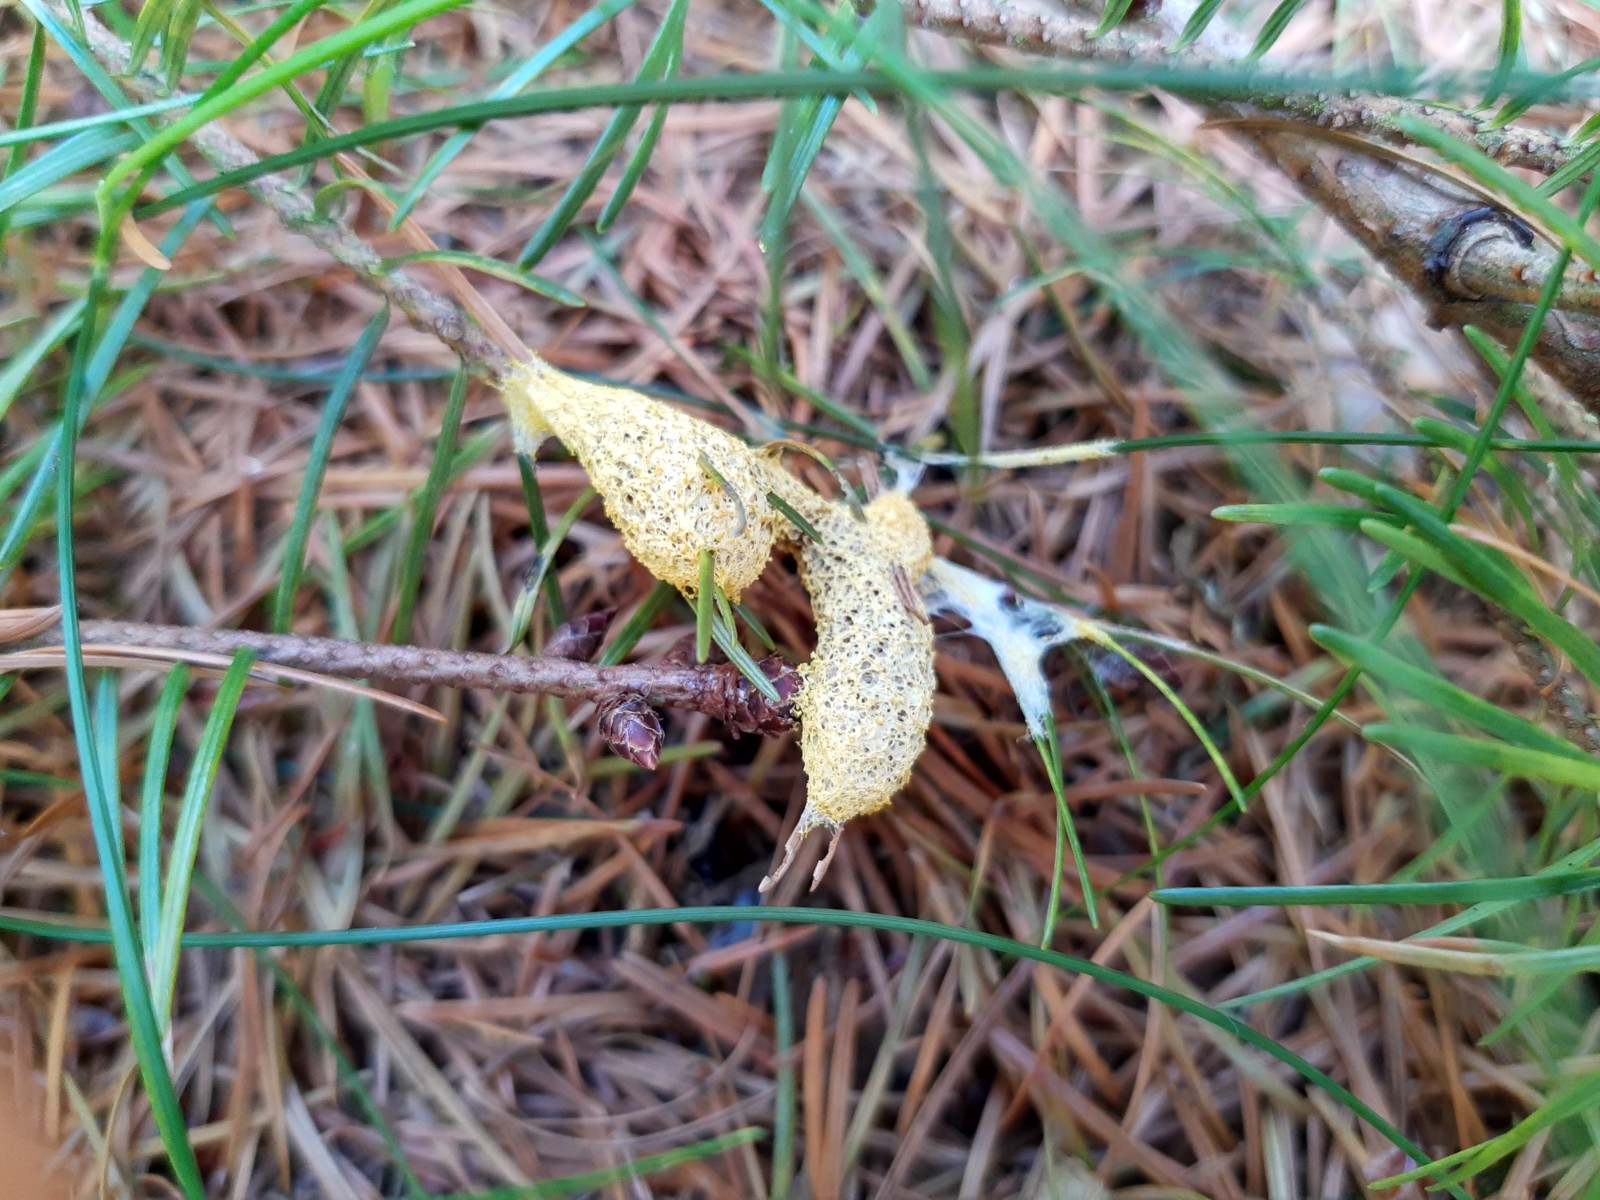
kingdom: Protozoa
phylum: Mycetozoa
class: Myxomycetes
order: Physarales
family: Physaraceae
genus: Fuligo
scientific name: Fuligo septica
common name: gul troldsmør
